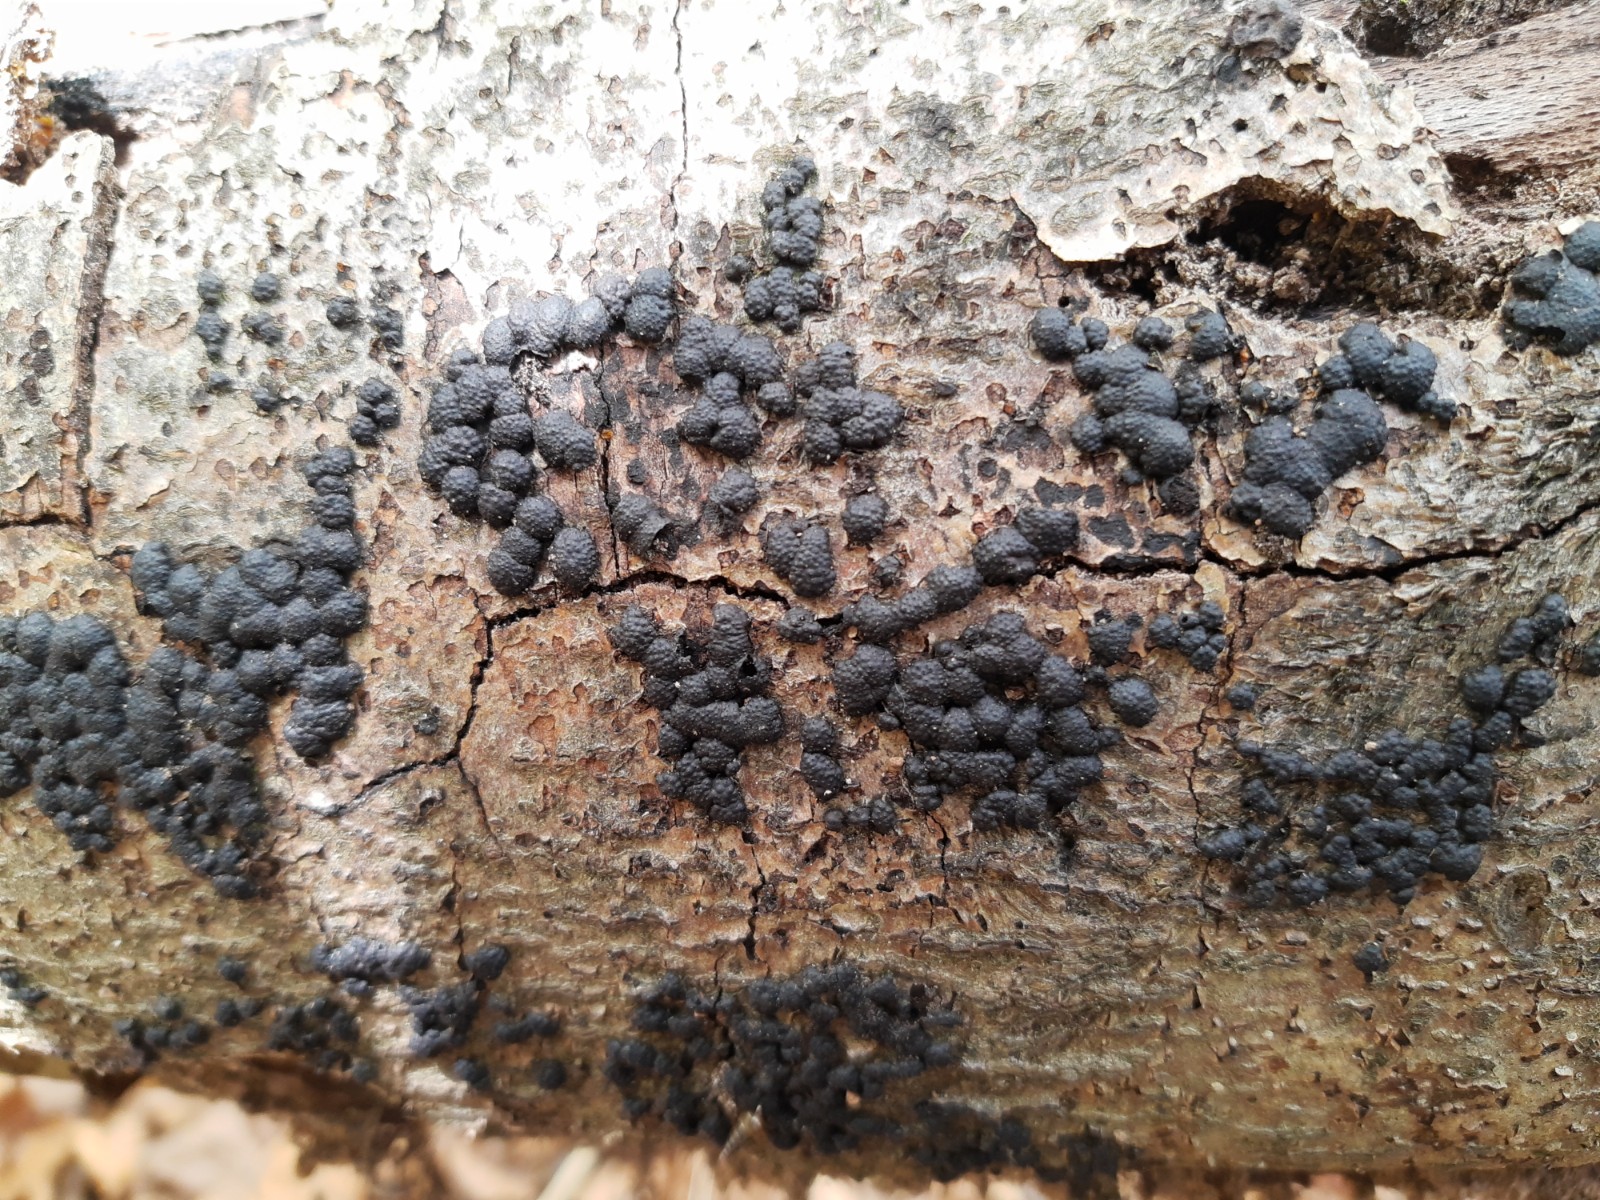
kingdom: Fungi
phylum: Ascomycota
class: Sordariomycetes
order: Xylariales
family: Hypoxylaceae
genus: Jackrogersella
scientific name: Jackrogersella cohaerens
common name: sammenflydende kulbær
